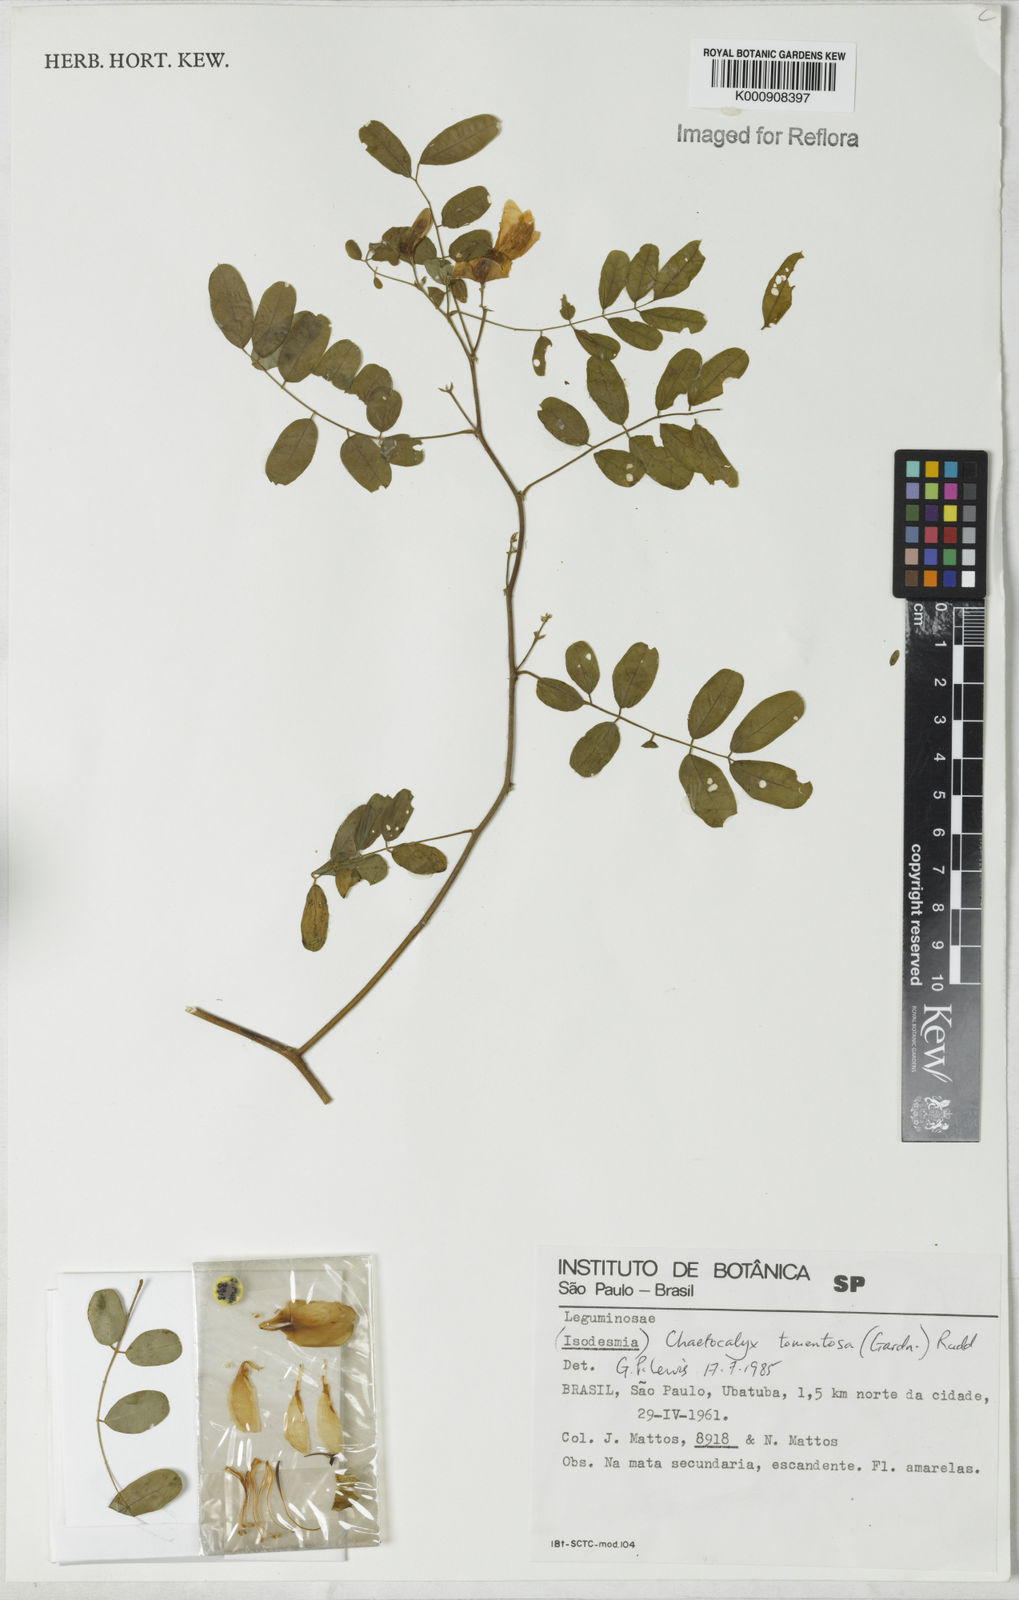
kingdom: Plantae
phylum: Tracheophyta
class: Magnoliopsida
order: Fabales
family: Fabaceae
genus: Nissolia
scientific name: Nissolia tomentosa
